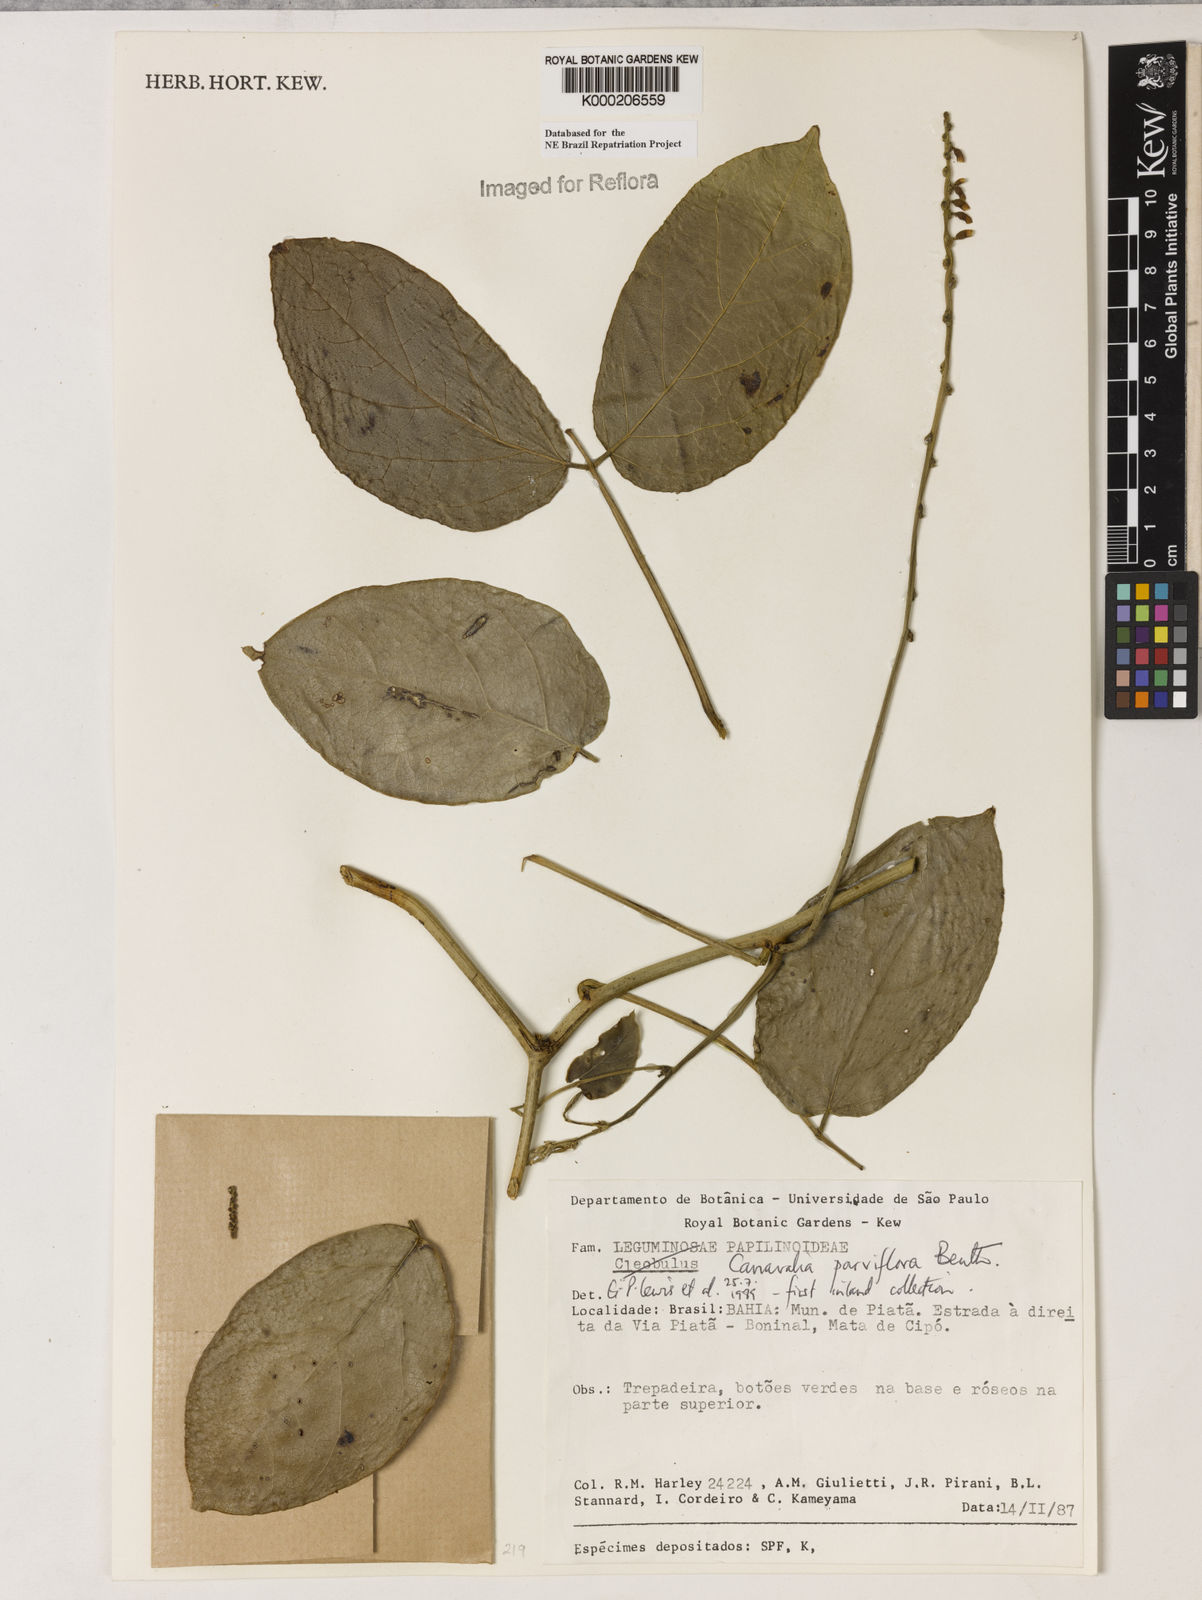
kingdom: Plantae
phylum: Tracheophyta
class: Magnoliopsida
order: Fabales
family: Fabaceae
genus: Canavalia
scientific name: Canavalia parviflora
